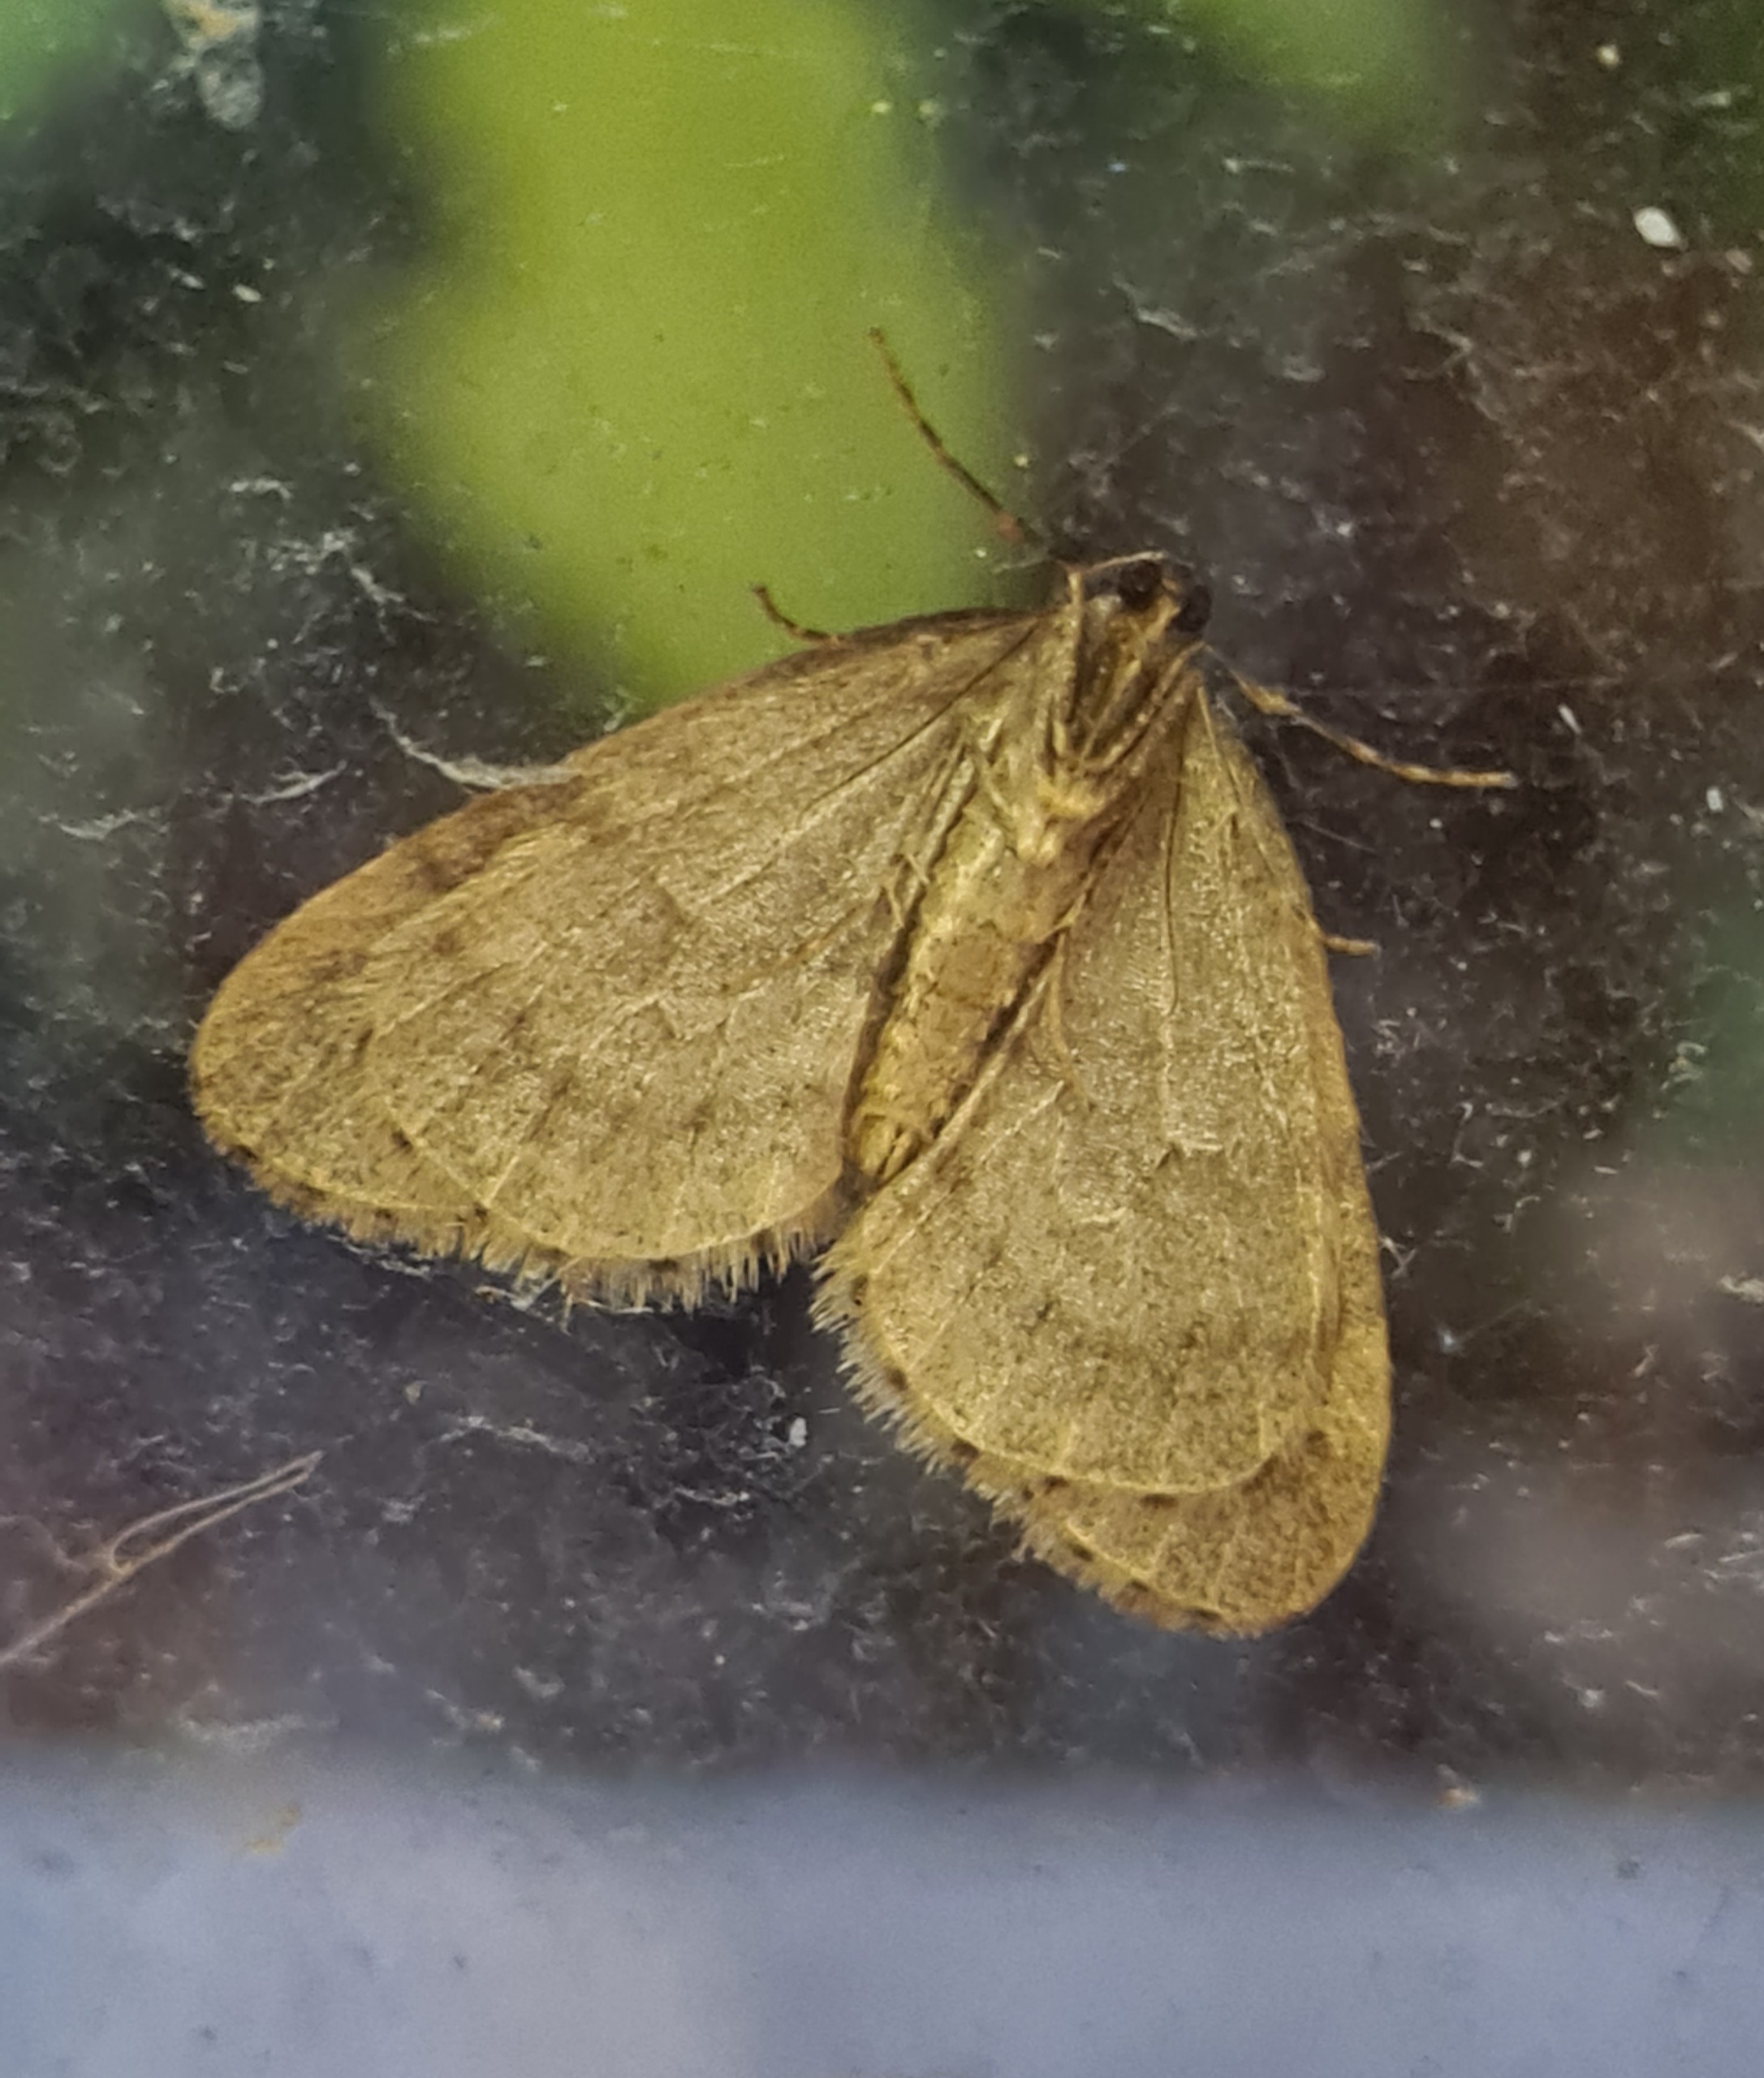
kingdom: Animalia
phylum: Arthropoda
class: Insecta
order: Lepidoptera
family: Geometridae
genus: Operophtera
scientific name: Operophtera brumata
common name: Lille frostmåler
